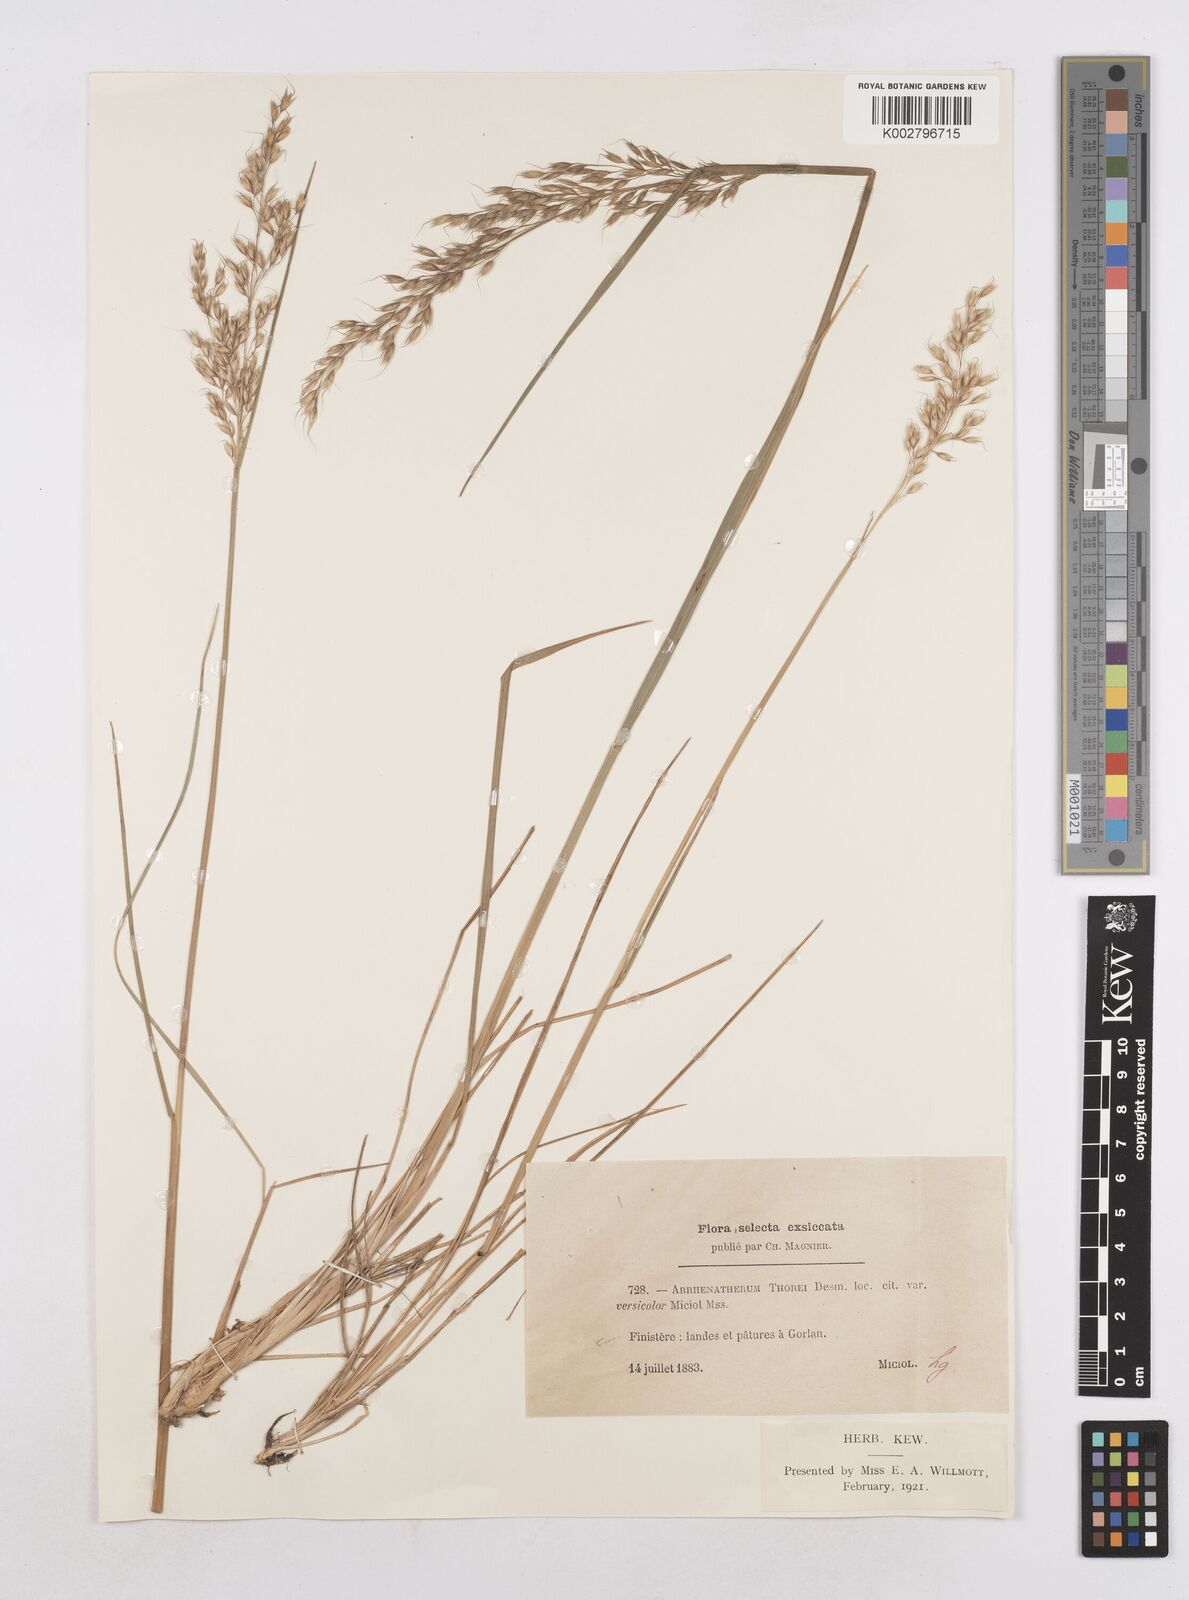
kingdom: Plantae
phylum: Tracheophyta
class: Liliopsida
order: Poales
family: Poaceae
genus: Arrhenatherum
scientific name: Arrhenatherum longifolium
